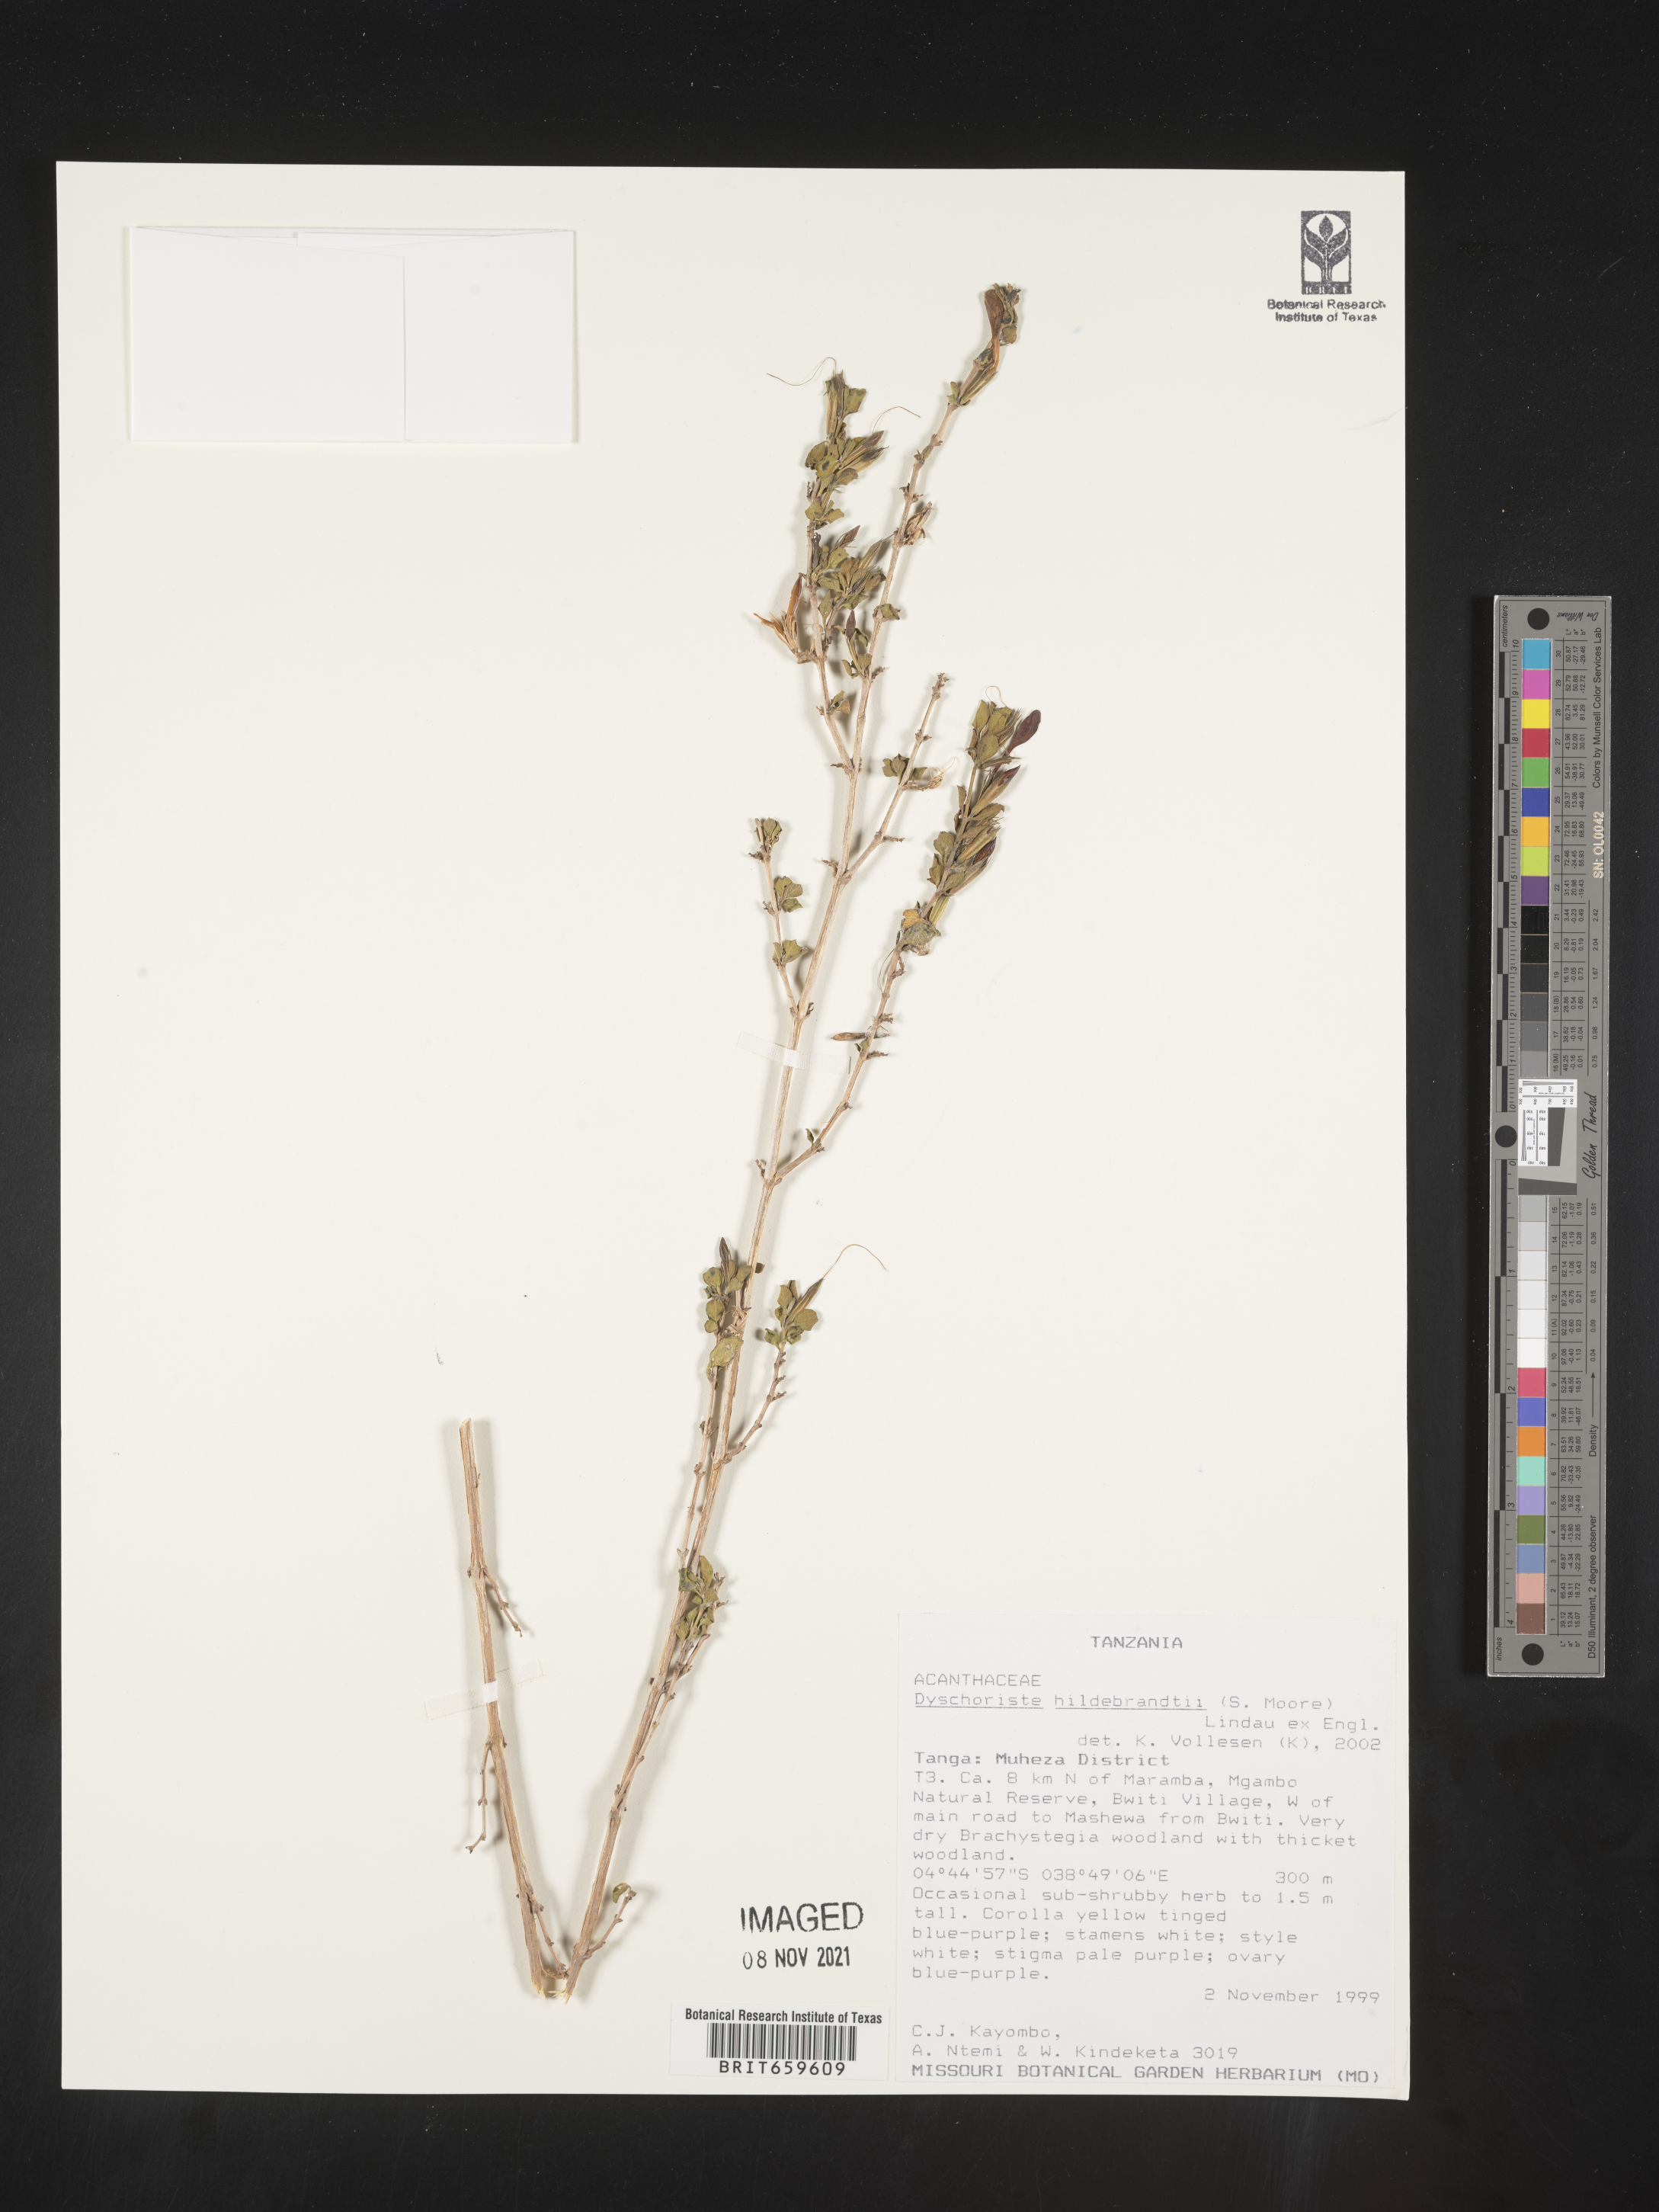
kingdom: Plantae
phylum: Tracheophyta
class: Magnoliopsida
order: Lamiales
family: Acanthaceae
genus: Dyschoriste
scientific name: Dyschoriste hildebrandtii
